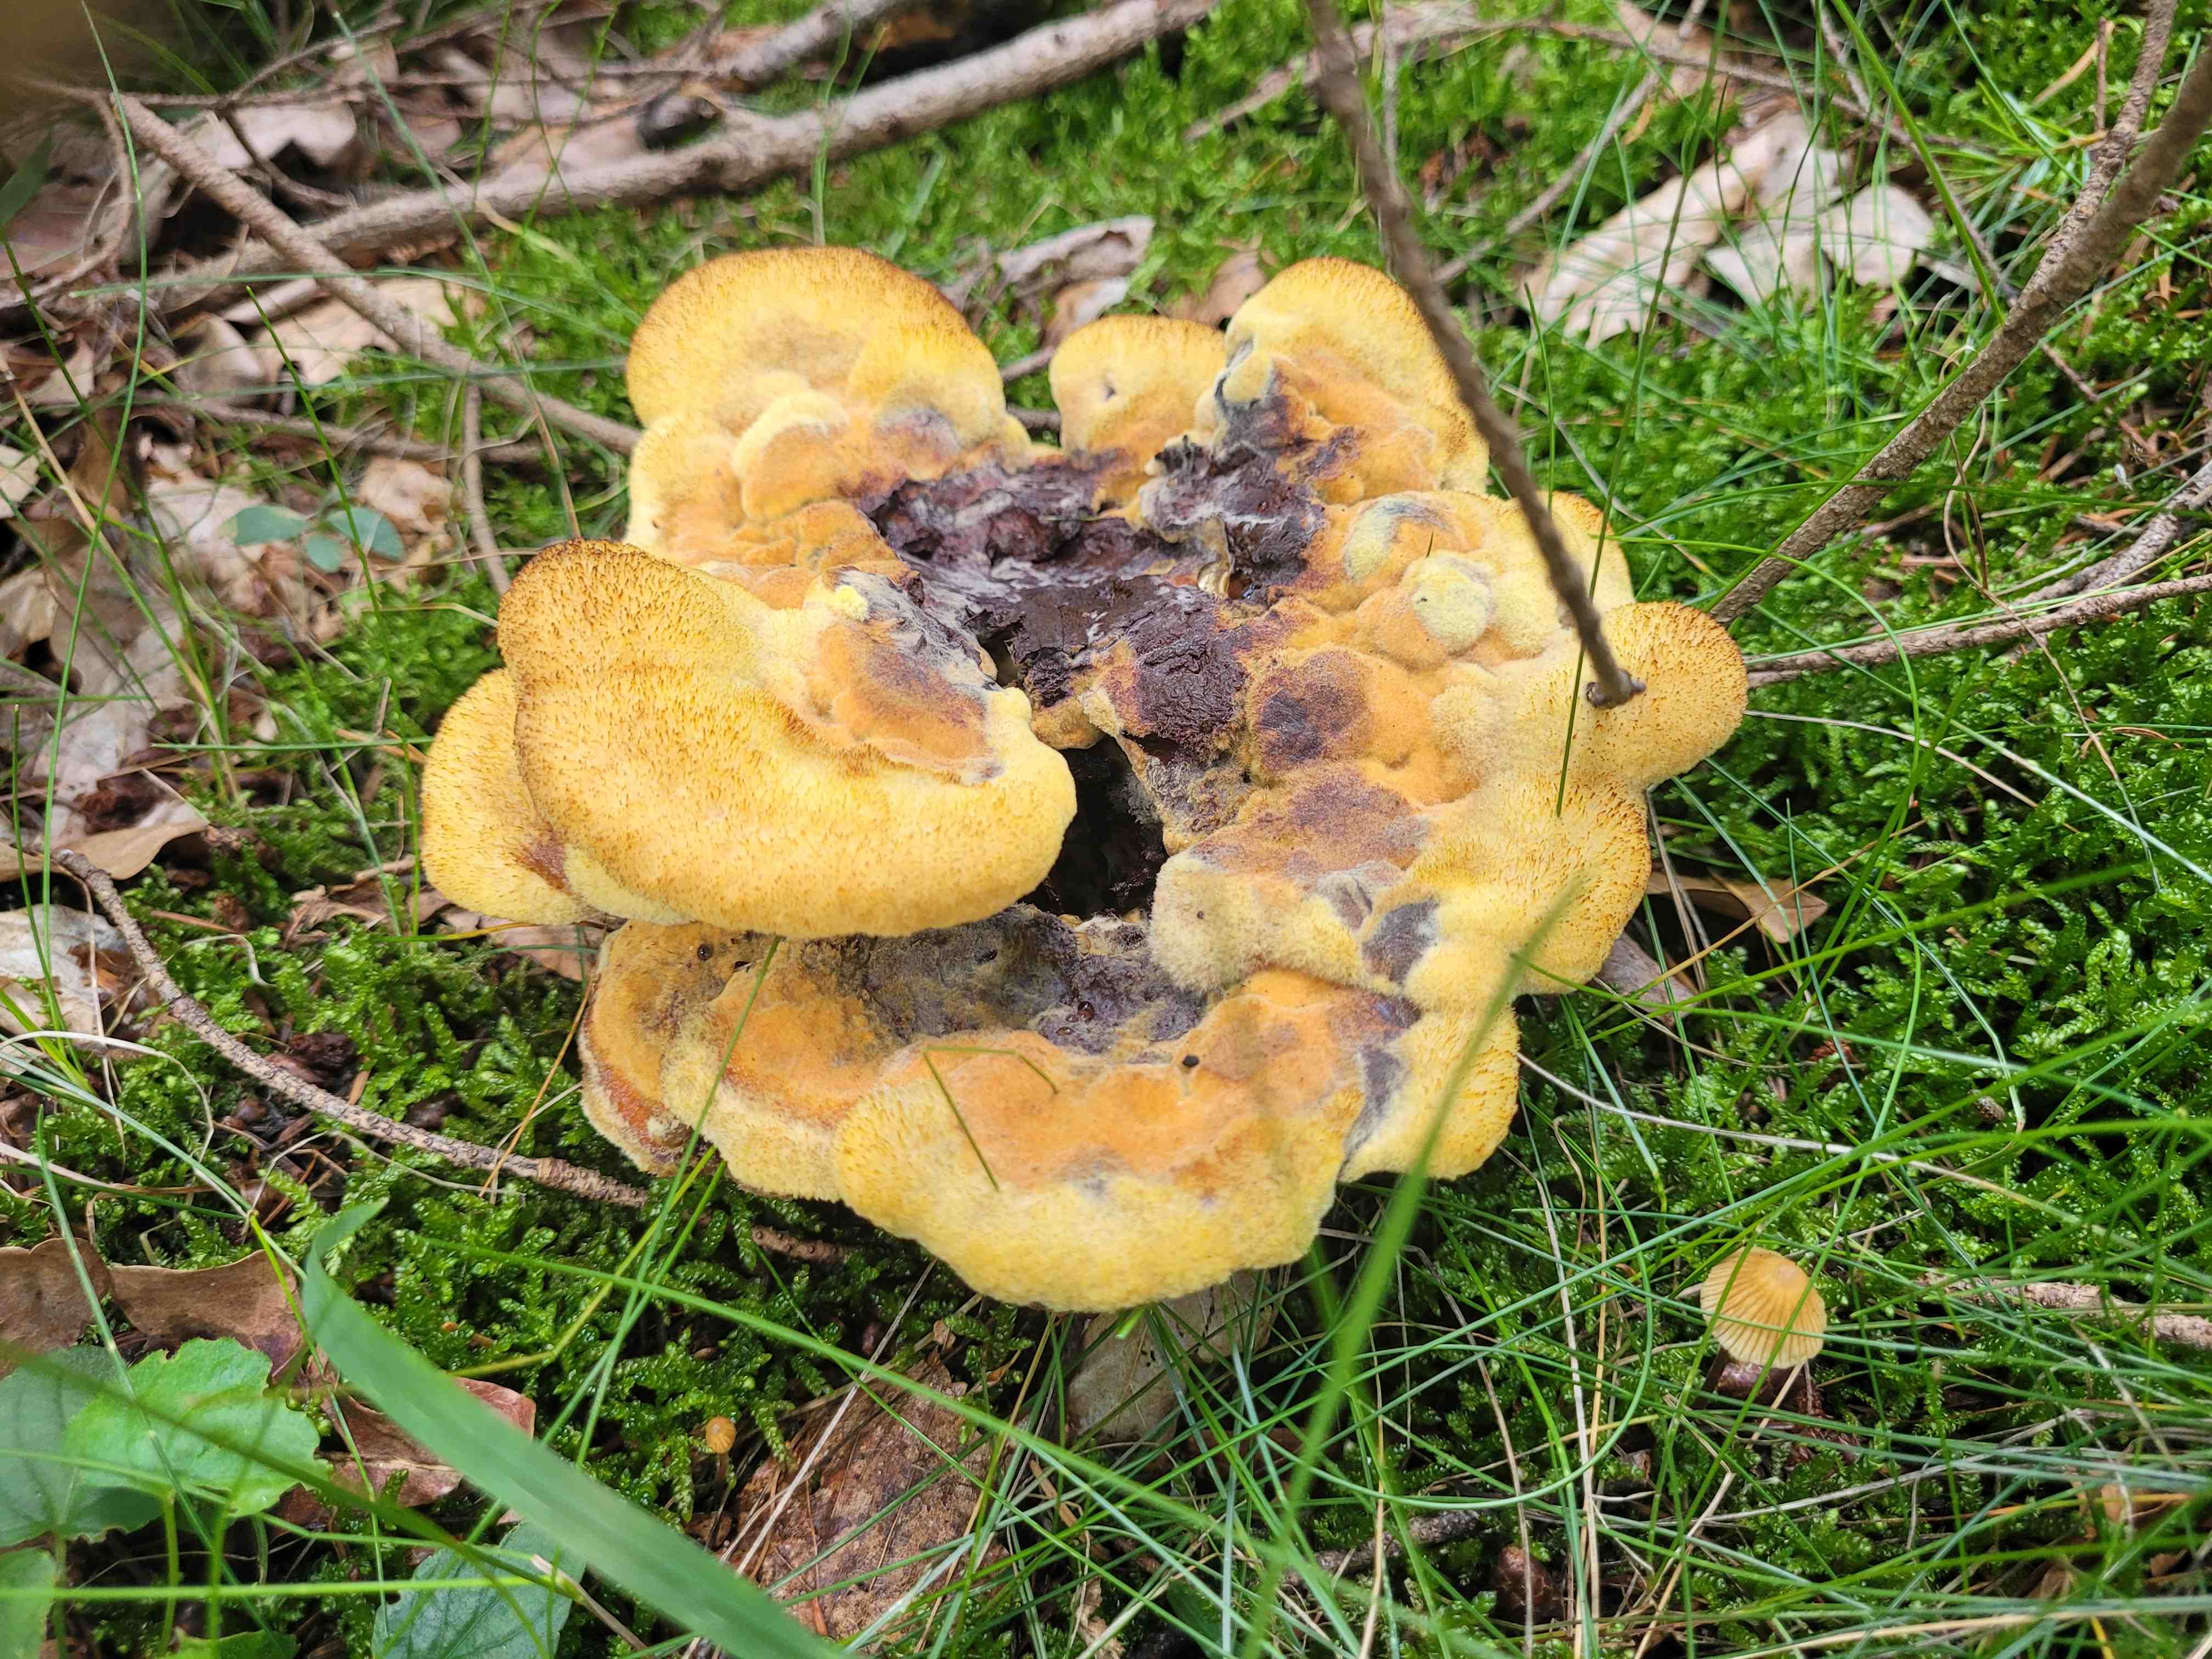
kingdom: Fungi
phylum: Basidiomycota
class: Agaricomycetes
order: Polyporales
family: Laetiporaceae
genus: Phaeolus
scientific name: Phaeolus schweinitzii
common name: brunporesvamp
